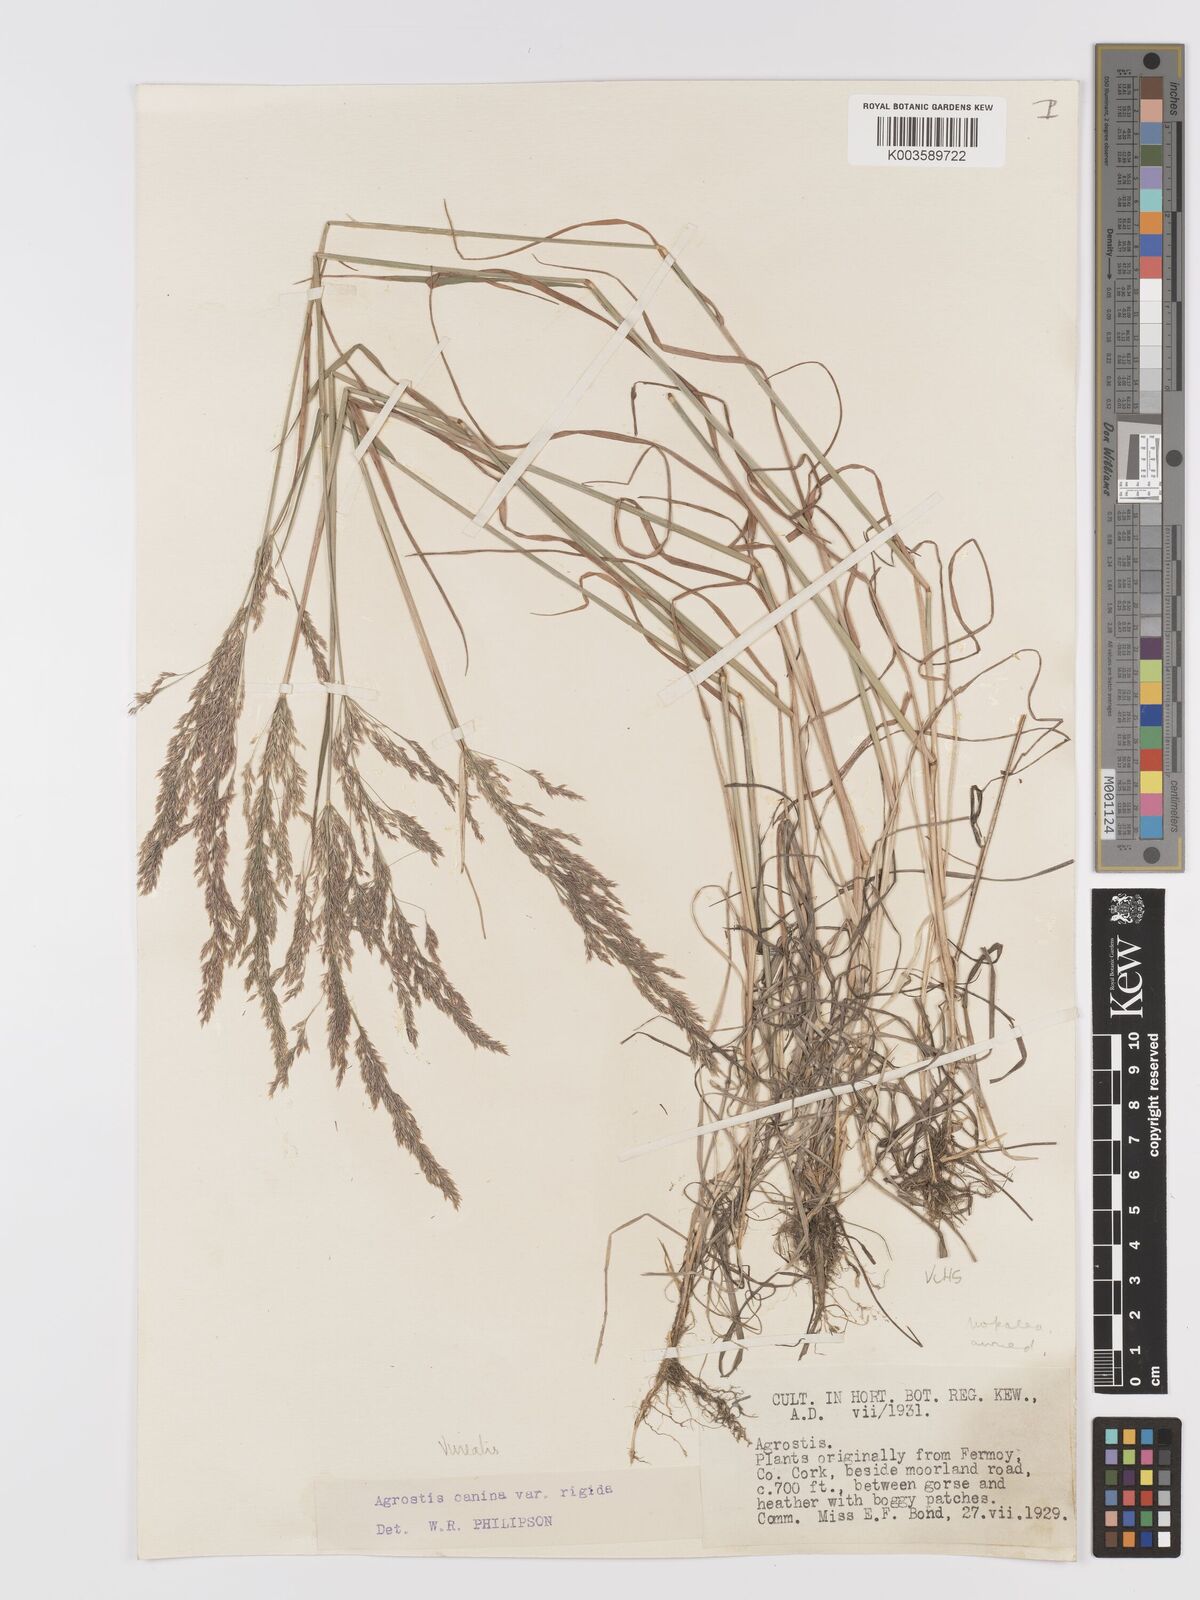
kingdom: Plantae
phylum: Tracheophyta
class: Liliopsida
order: Poales
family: Poaceae
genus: Agrostis
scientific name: Agrostis
